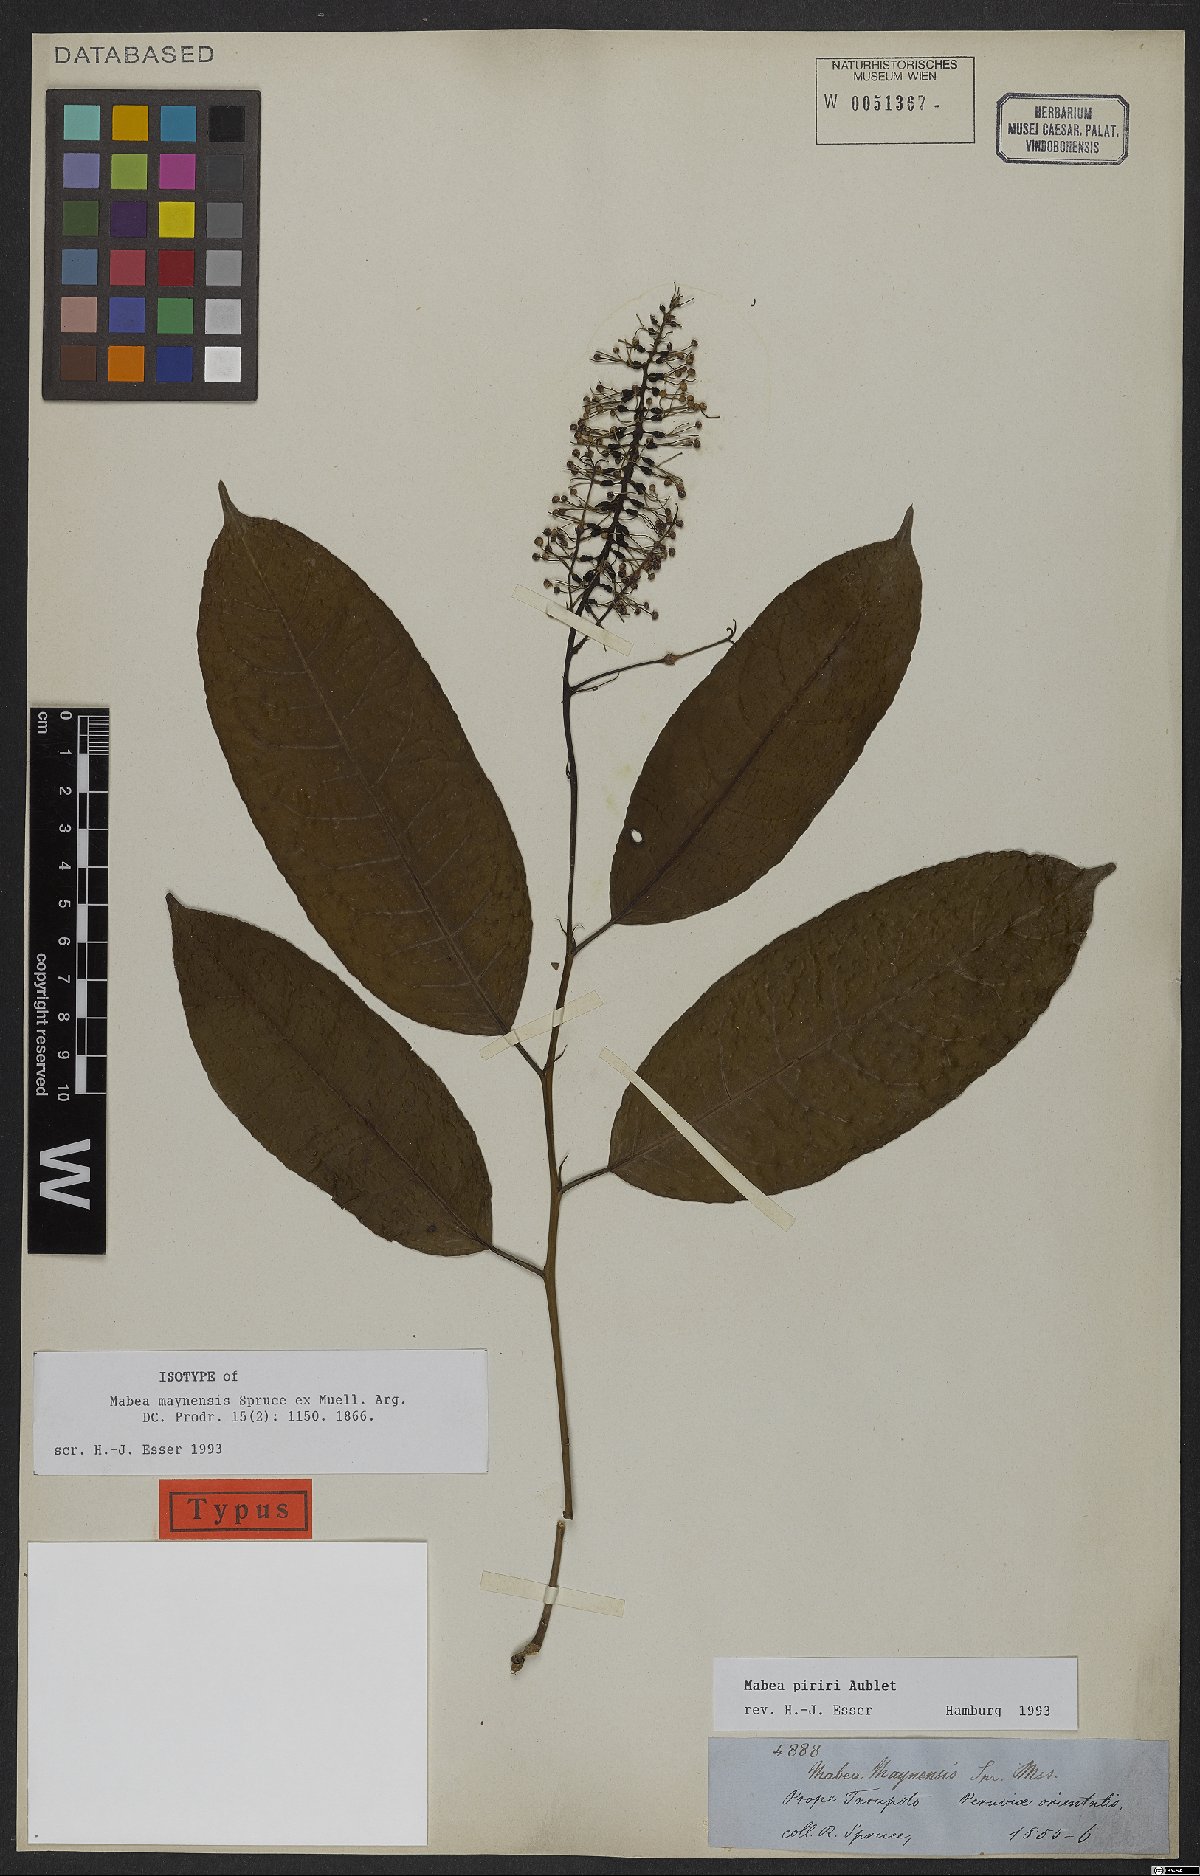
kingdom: Plantae
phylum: Tracheophyta
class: Magnoliopsida
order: Malpighiales
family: Euphorbiaceae
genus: Mabea
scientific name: Mabea piriri
